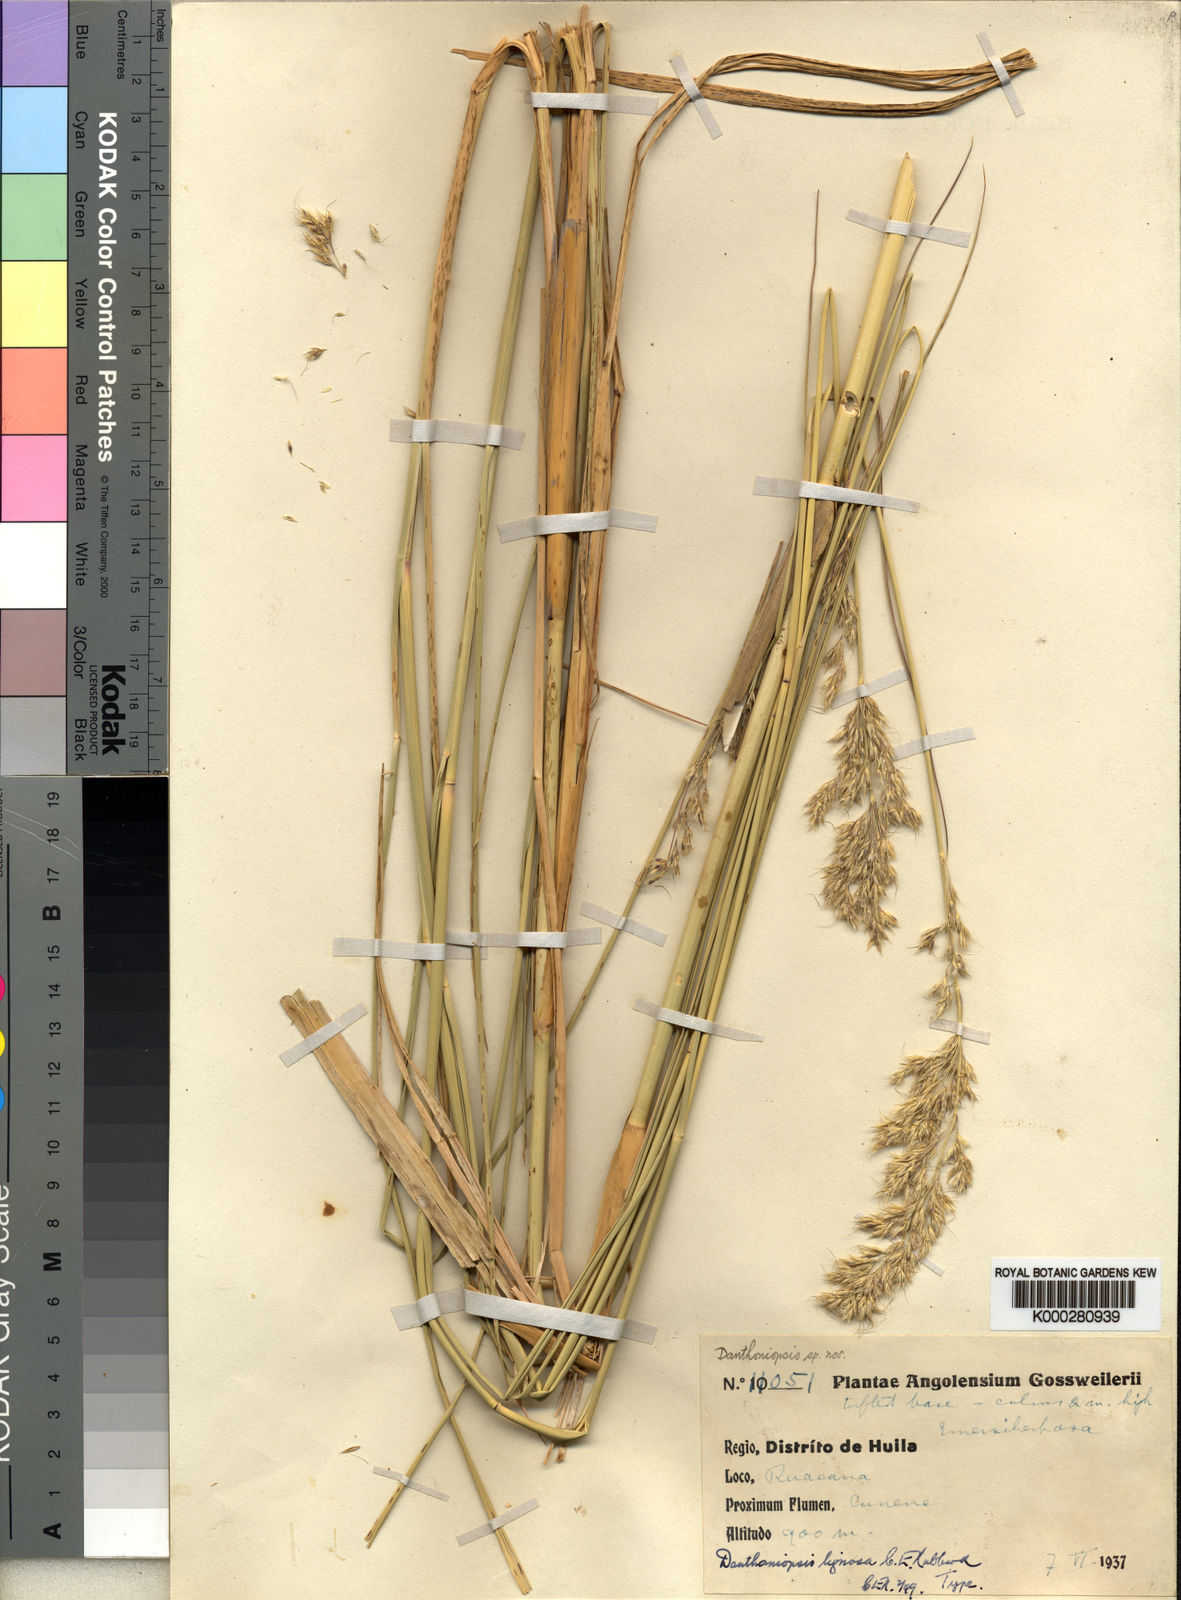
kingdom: Plantae
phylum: Tracheophyta
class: Liliopsida
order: Poales
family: Poaceae
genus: Danthoniopsis
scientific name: Danthoniopsis lignosa
